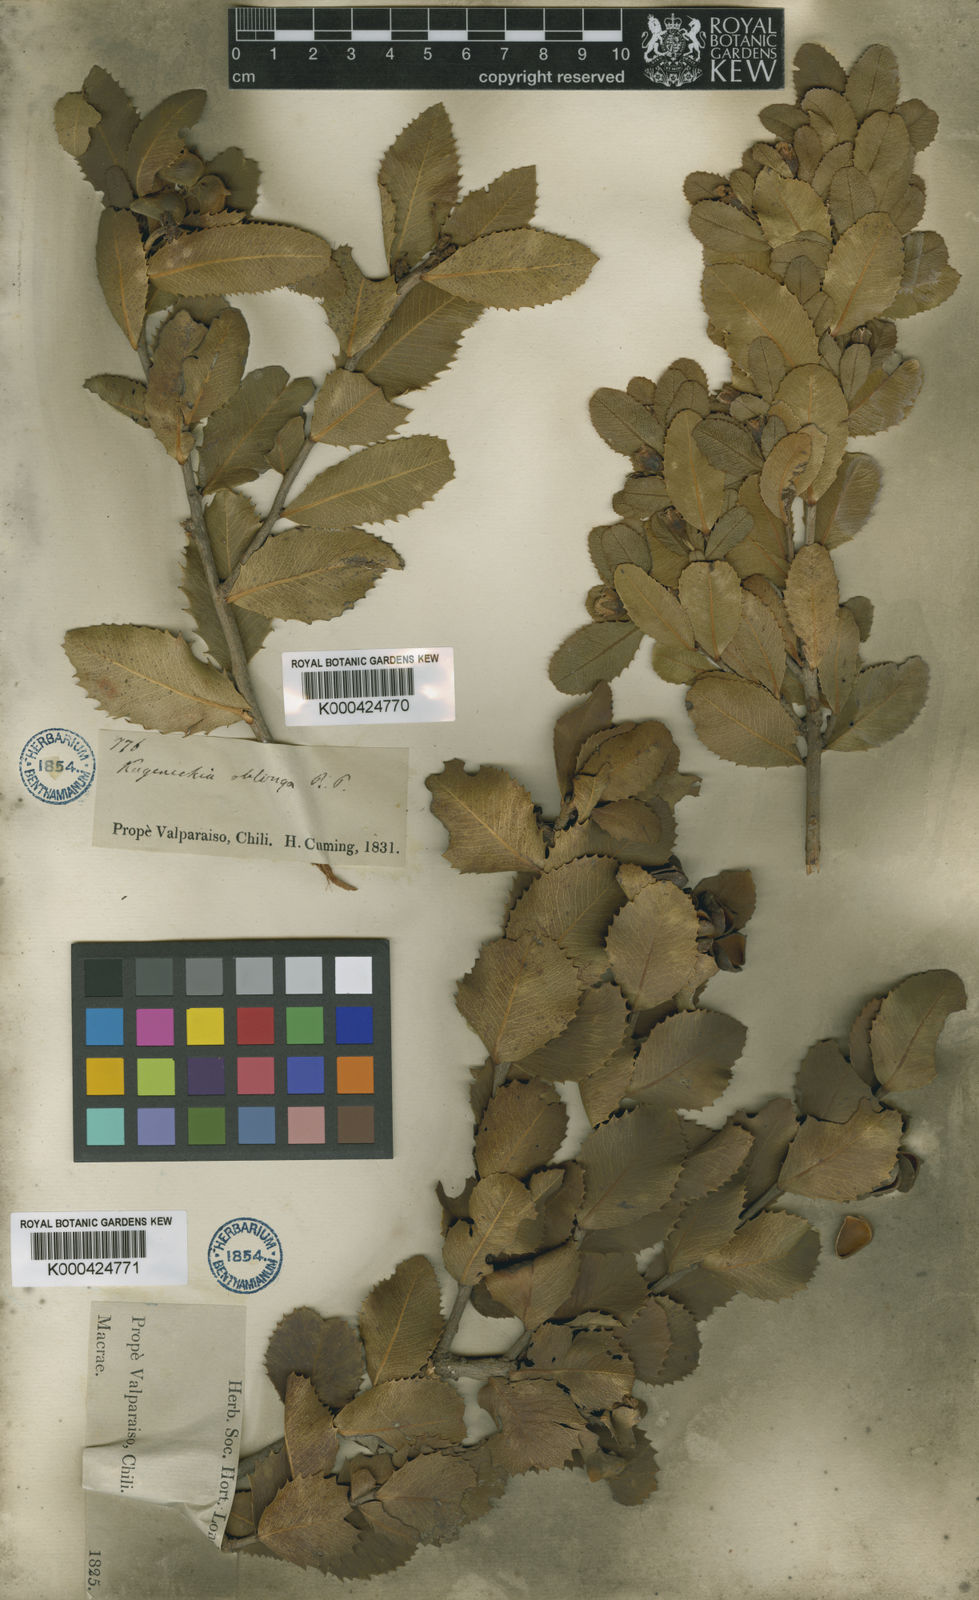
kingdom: Plantae
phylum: Tracheophyta
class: Magnoliopsida
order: Rosales
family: Rosaceae
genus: Kageneckia
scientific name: Kageneckia oblonga
